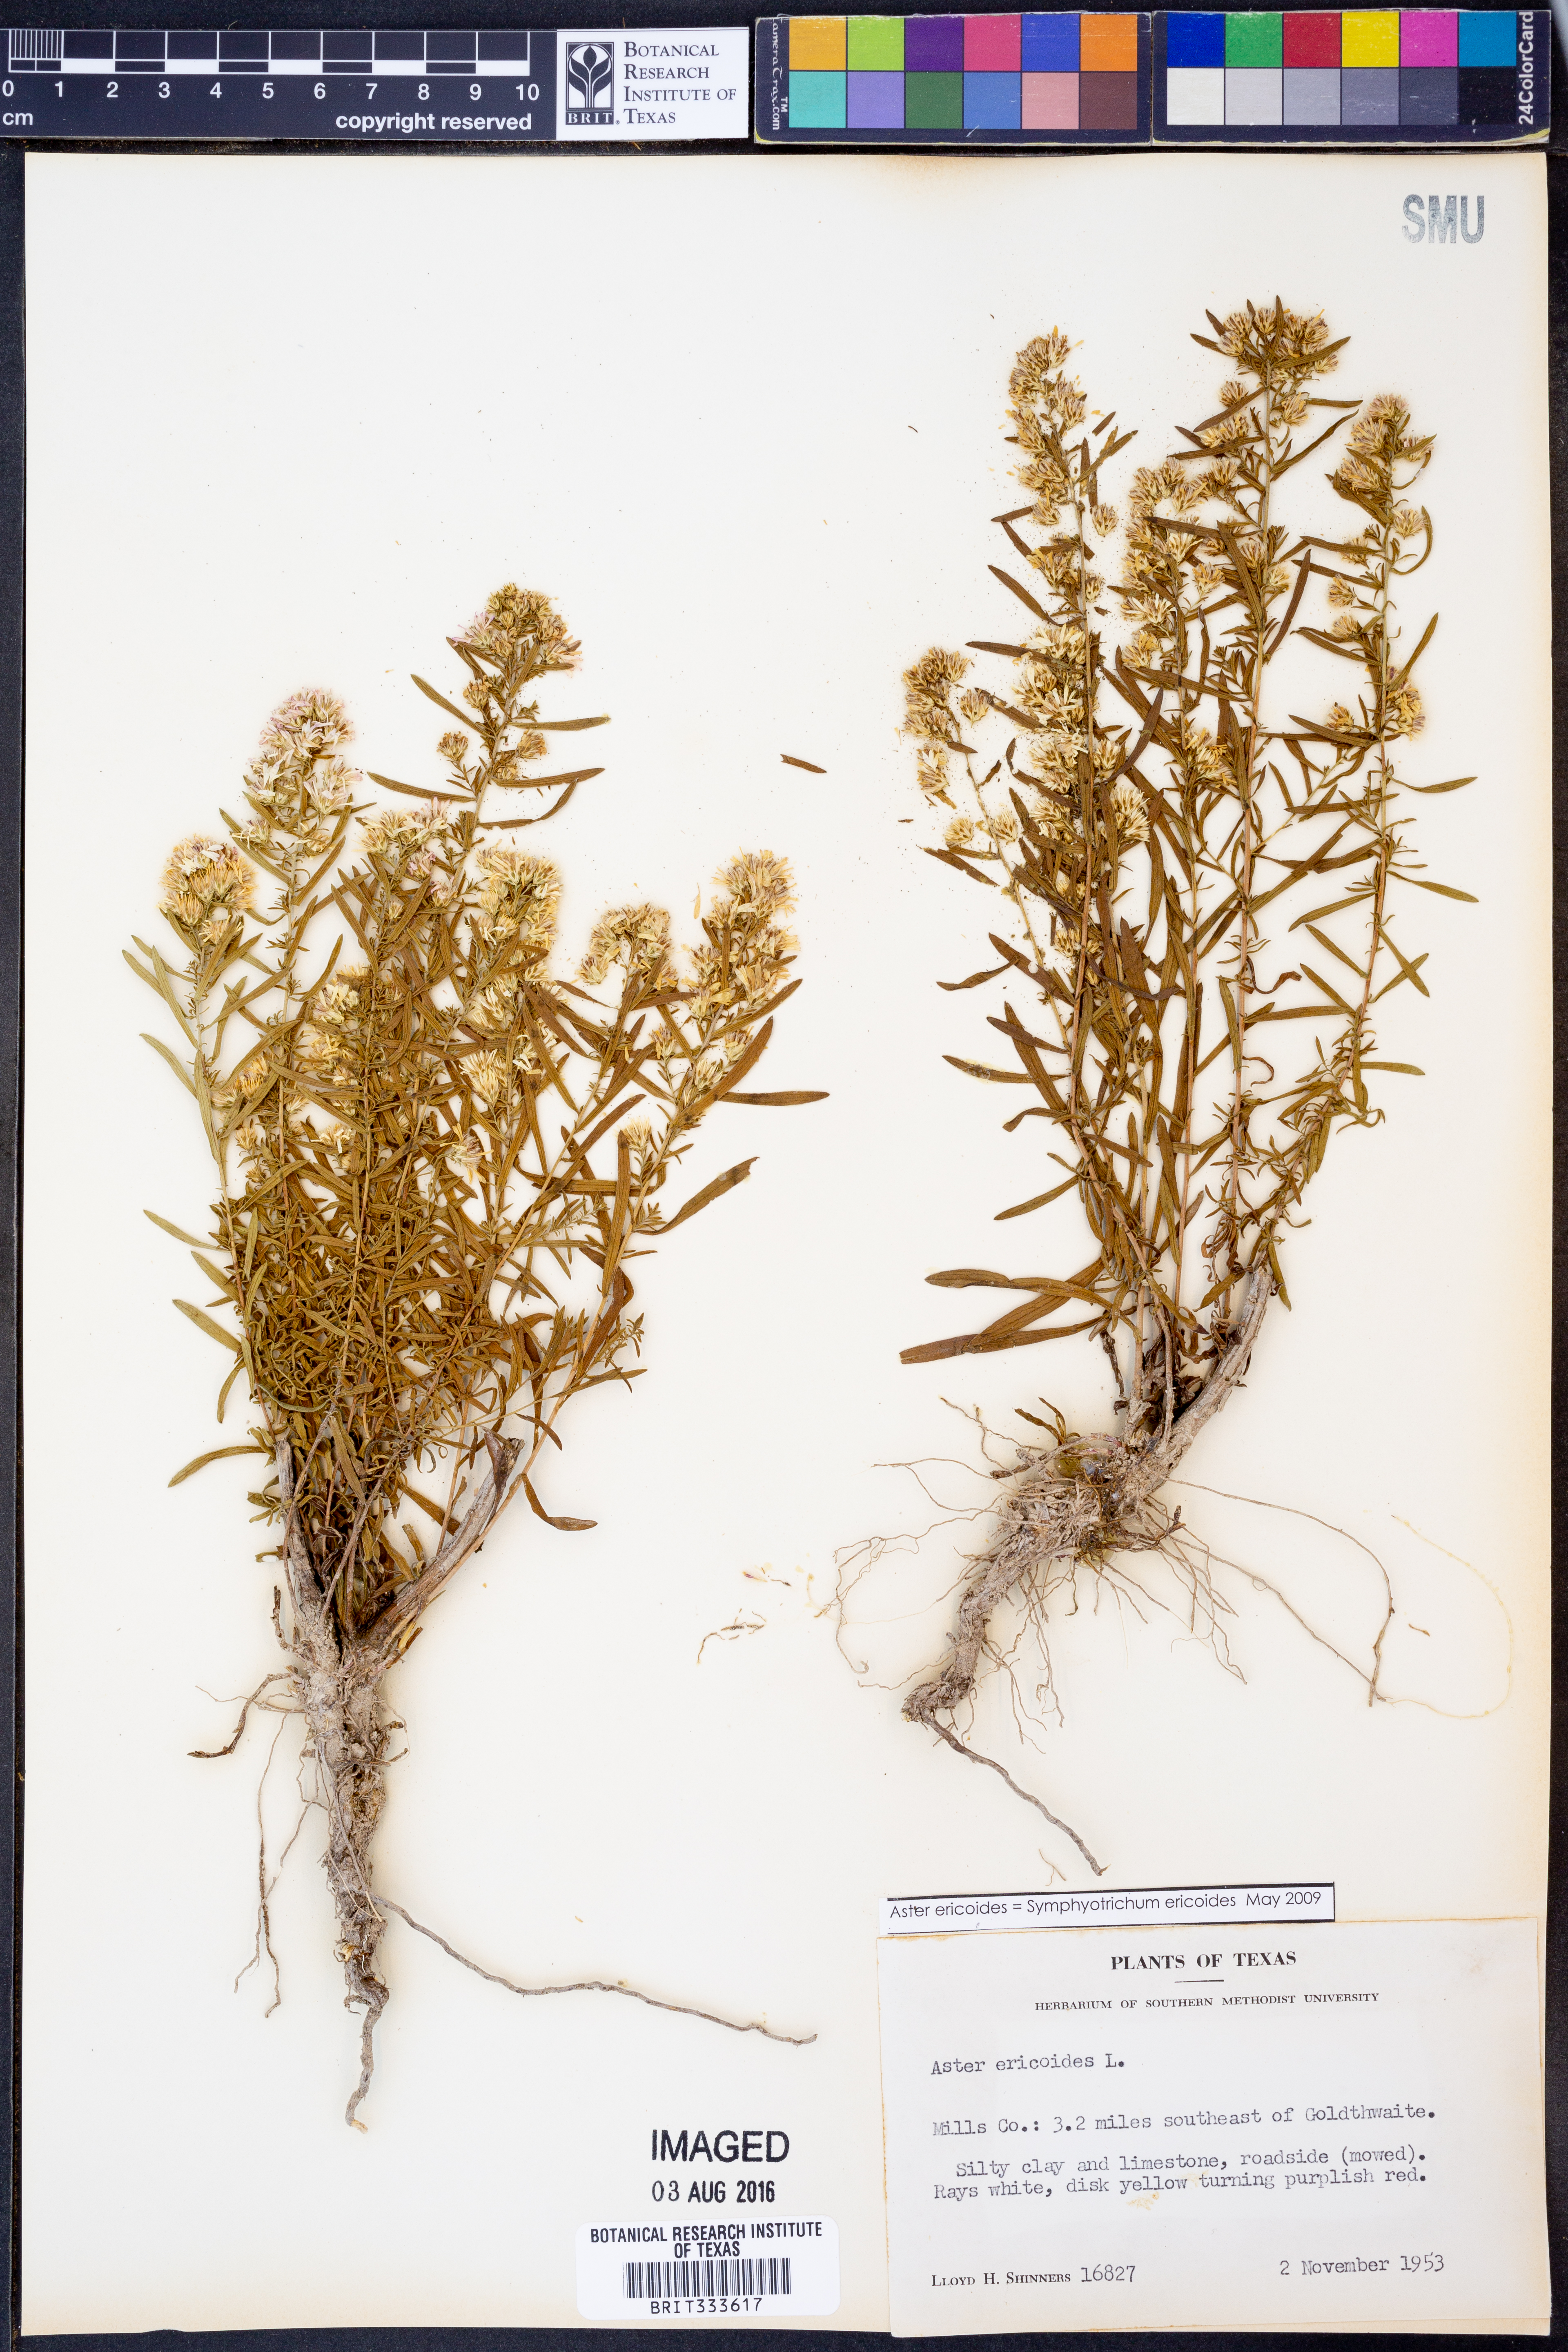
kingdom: Plantae
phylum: Tracheophyta
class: Magnoliopsida
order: Asterales
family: Asteraceae
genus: Symphyotrichum
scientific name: Symphyotrichum ericoides
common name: Heath aster
